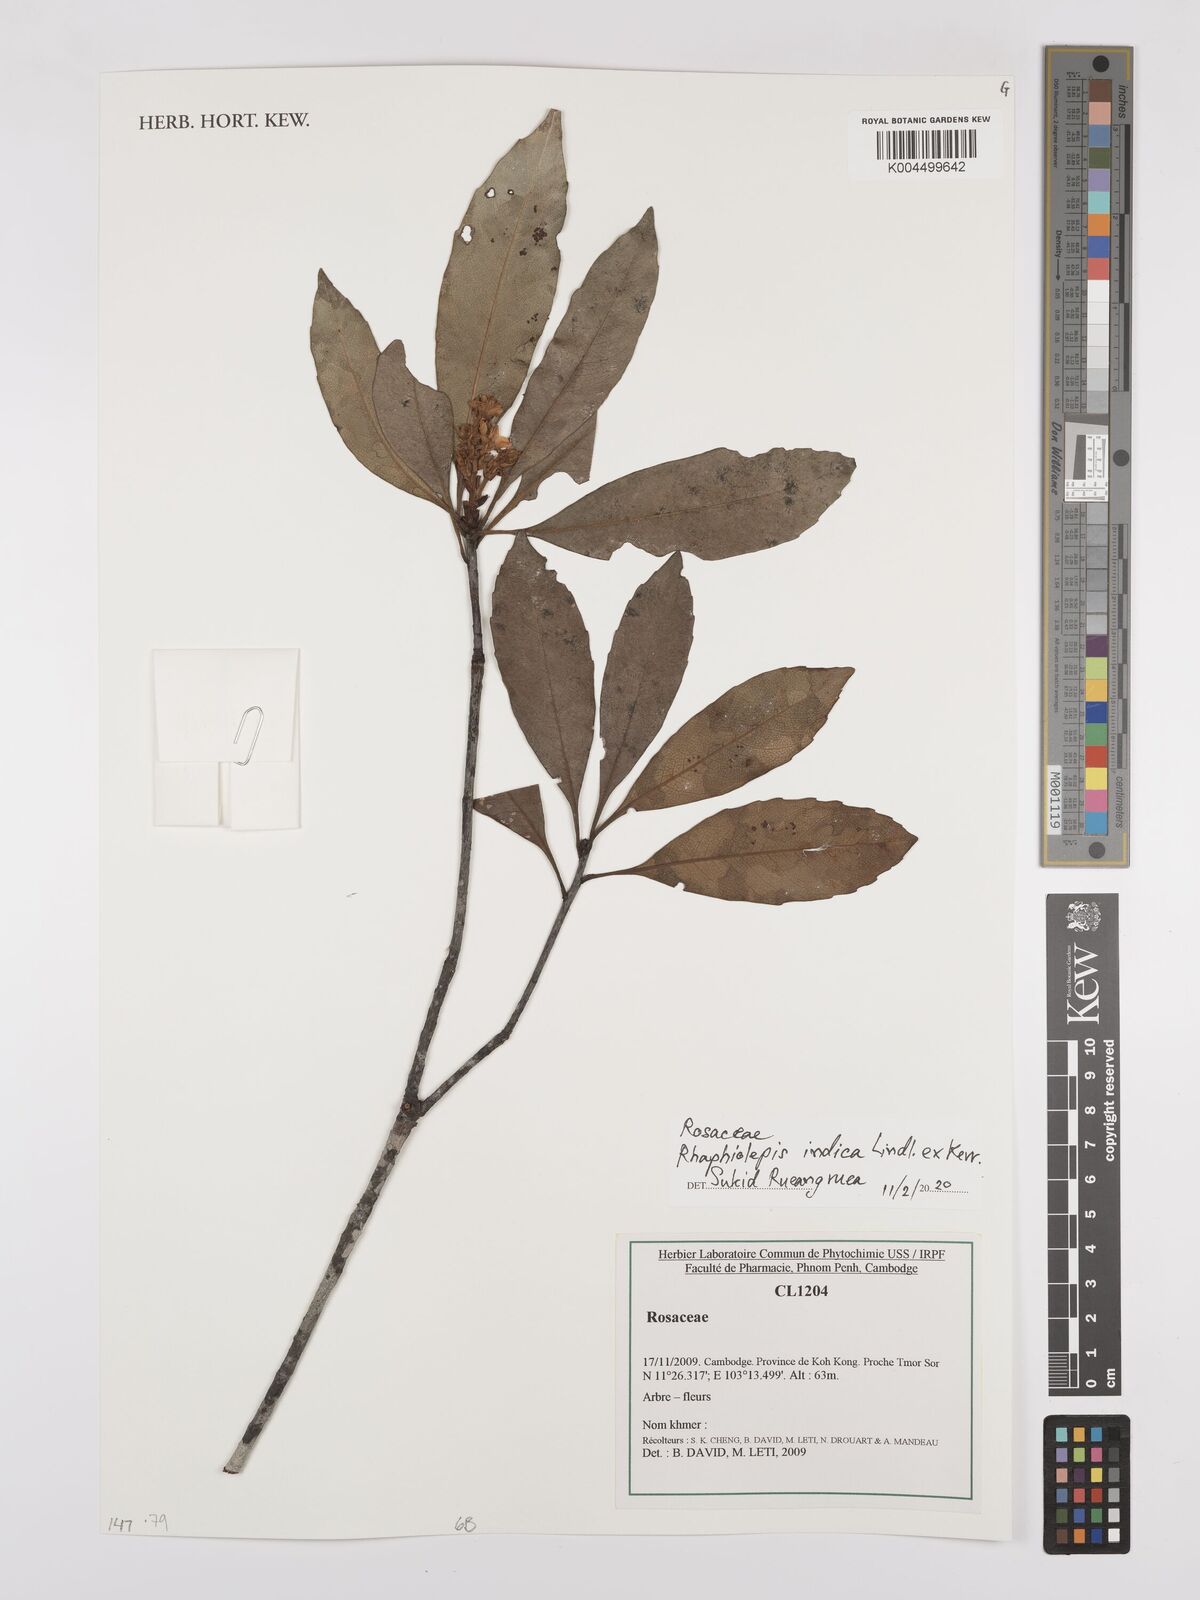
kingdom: Plantae
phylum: Tracheophyta
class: Magnoliopsida
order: Rosales
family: Rosaceae
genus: Rhaphiolepis
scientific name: Rhaphiolepis indica
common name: India-hawthorn
